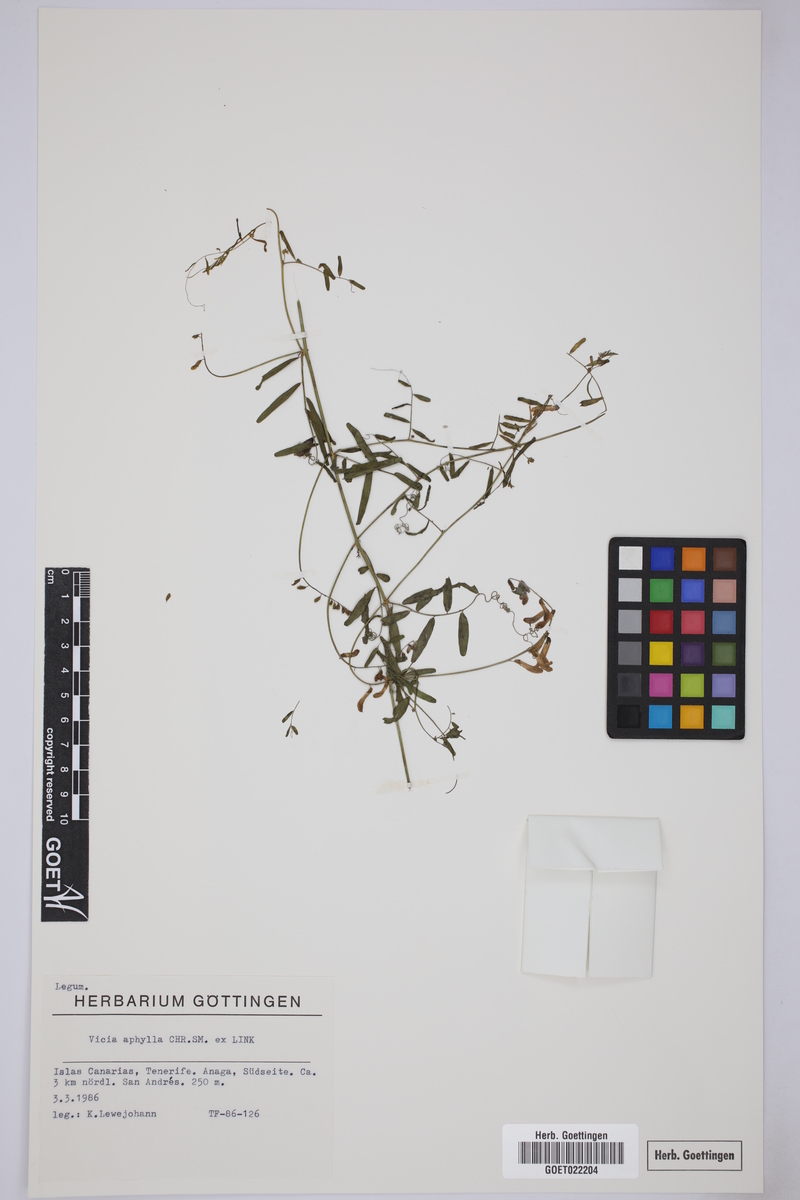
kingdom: Plantae
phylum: Tracheophyta
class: Magnoliopsida
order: Fabales
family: Fabaceae
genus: Vicia
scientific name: Vicia aphylla
